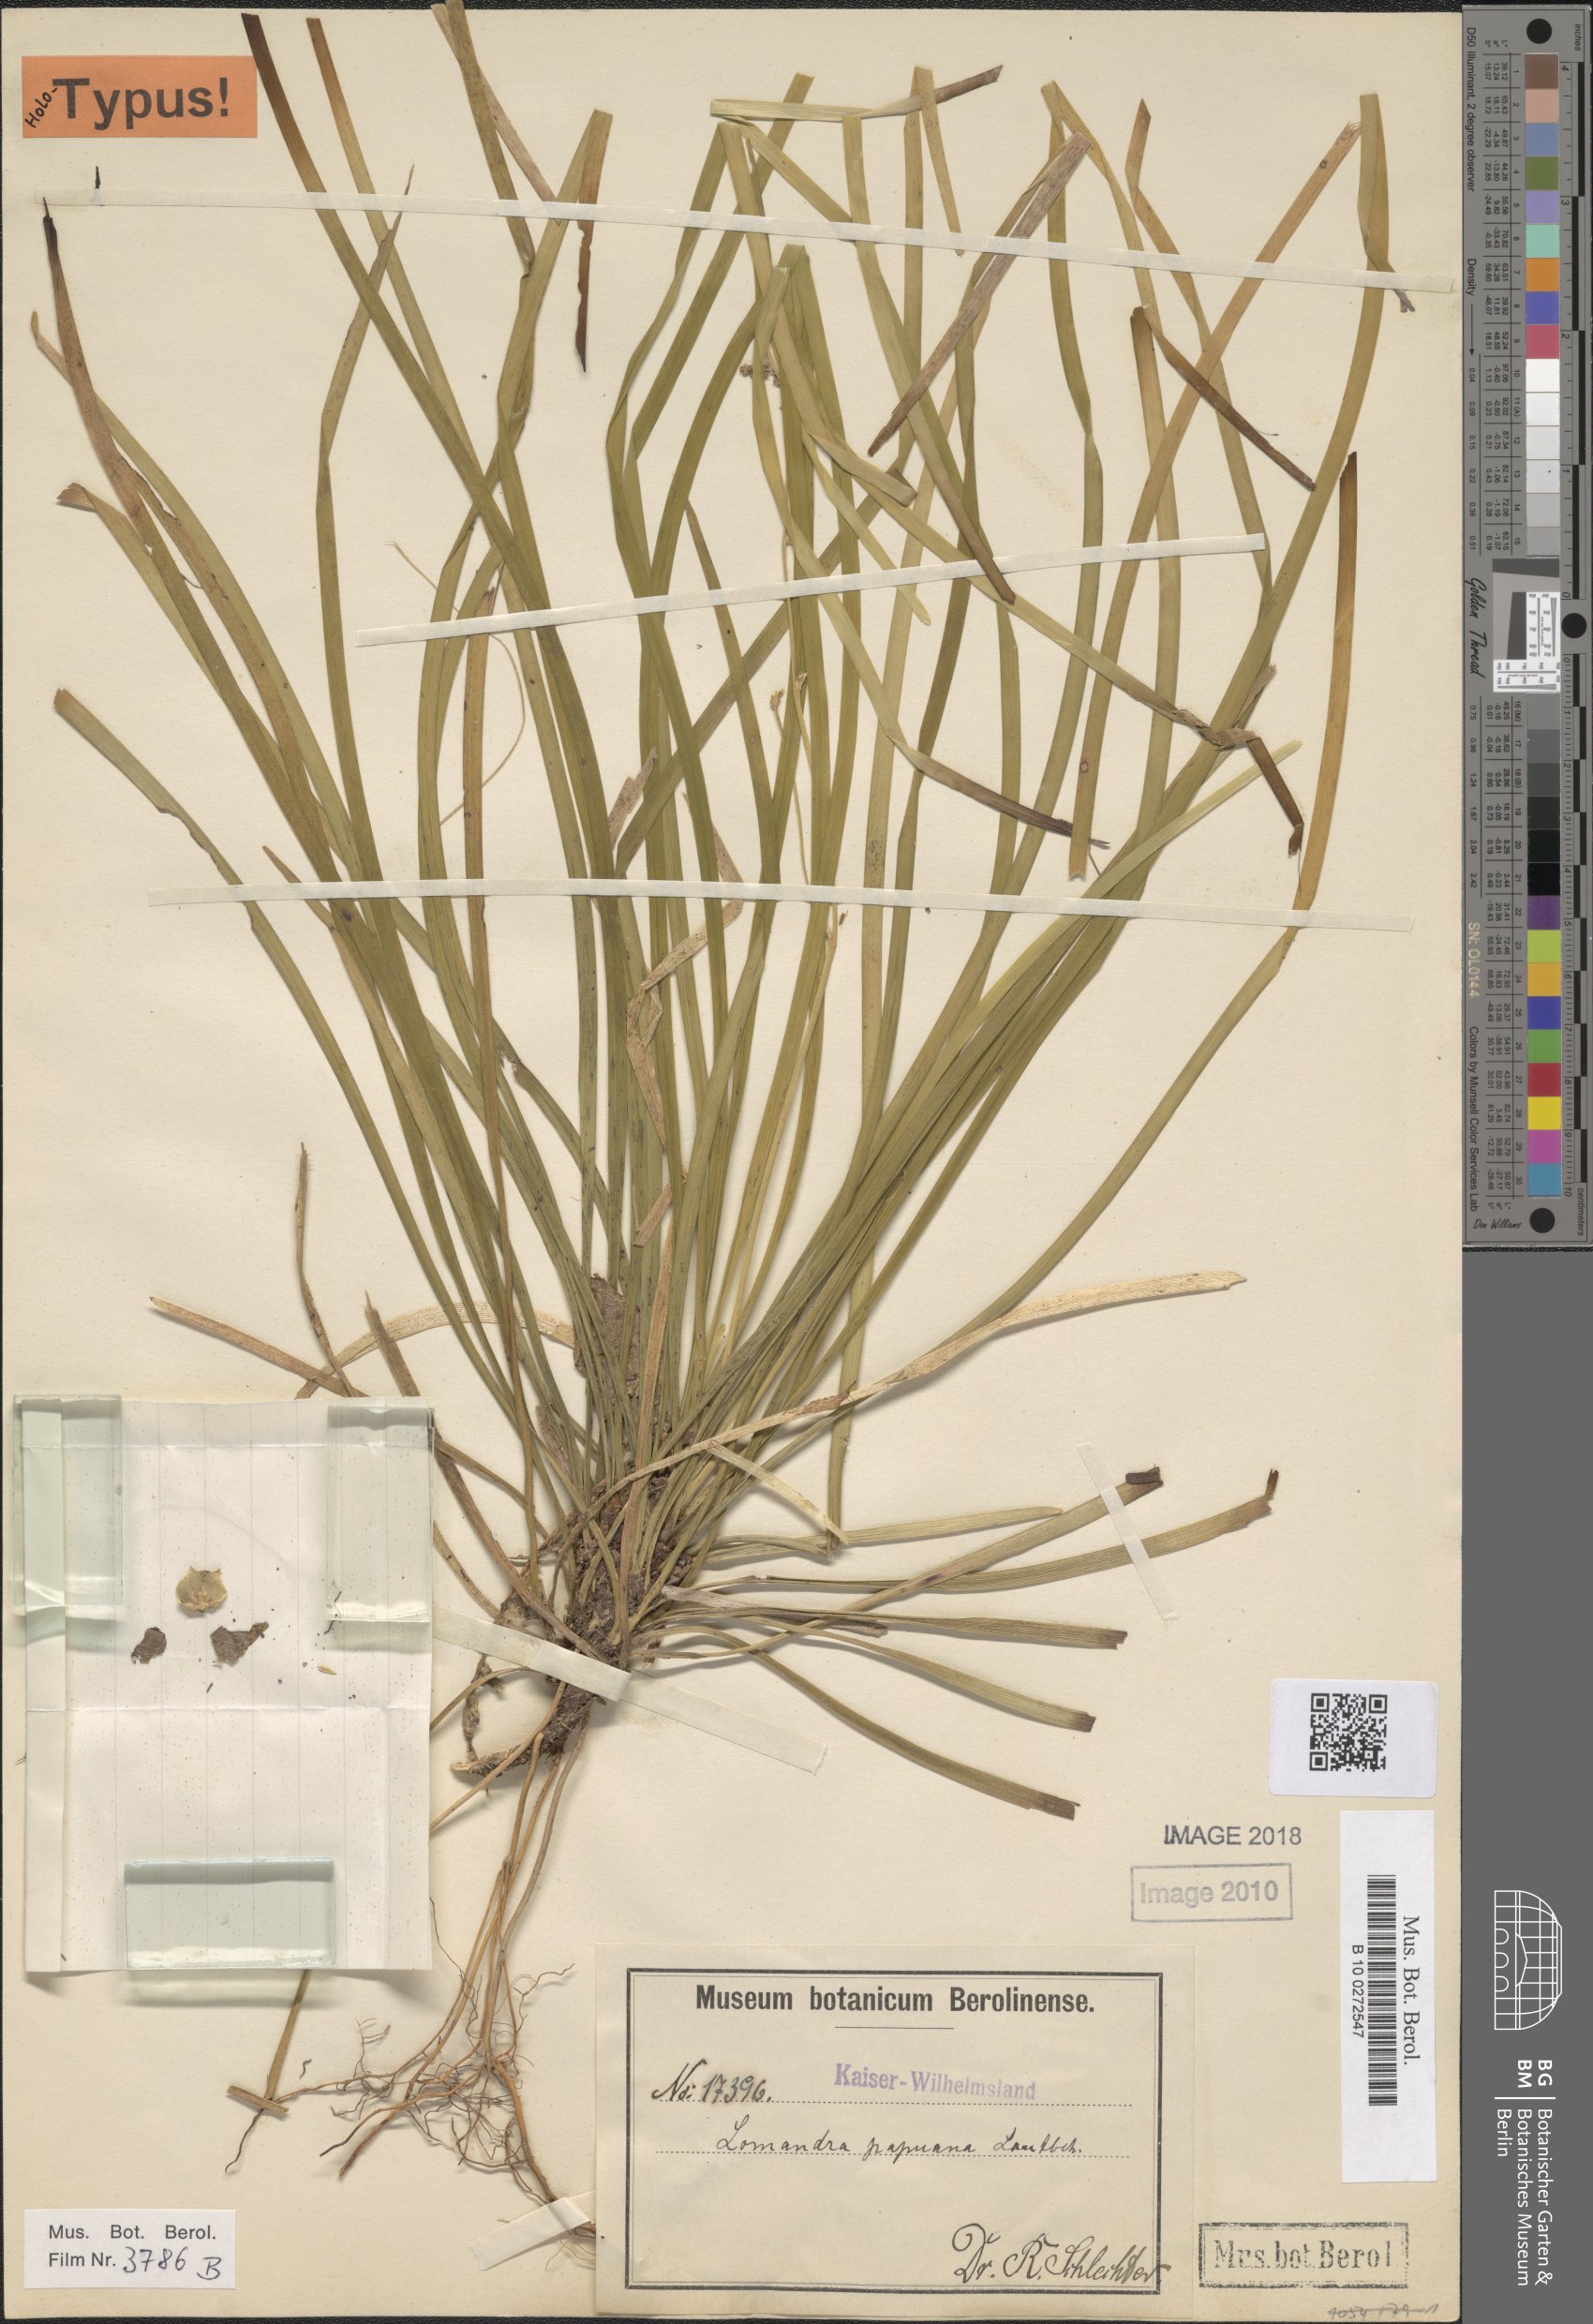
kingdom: Plantae
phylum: Tracheophyta
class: Liliopsida
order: Asparagales
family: Asparagaceae
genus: Romnalda
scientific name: Romnalda papuana
